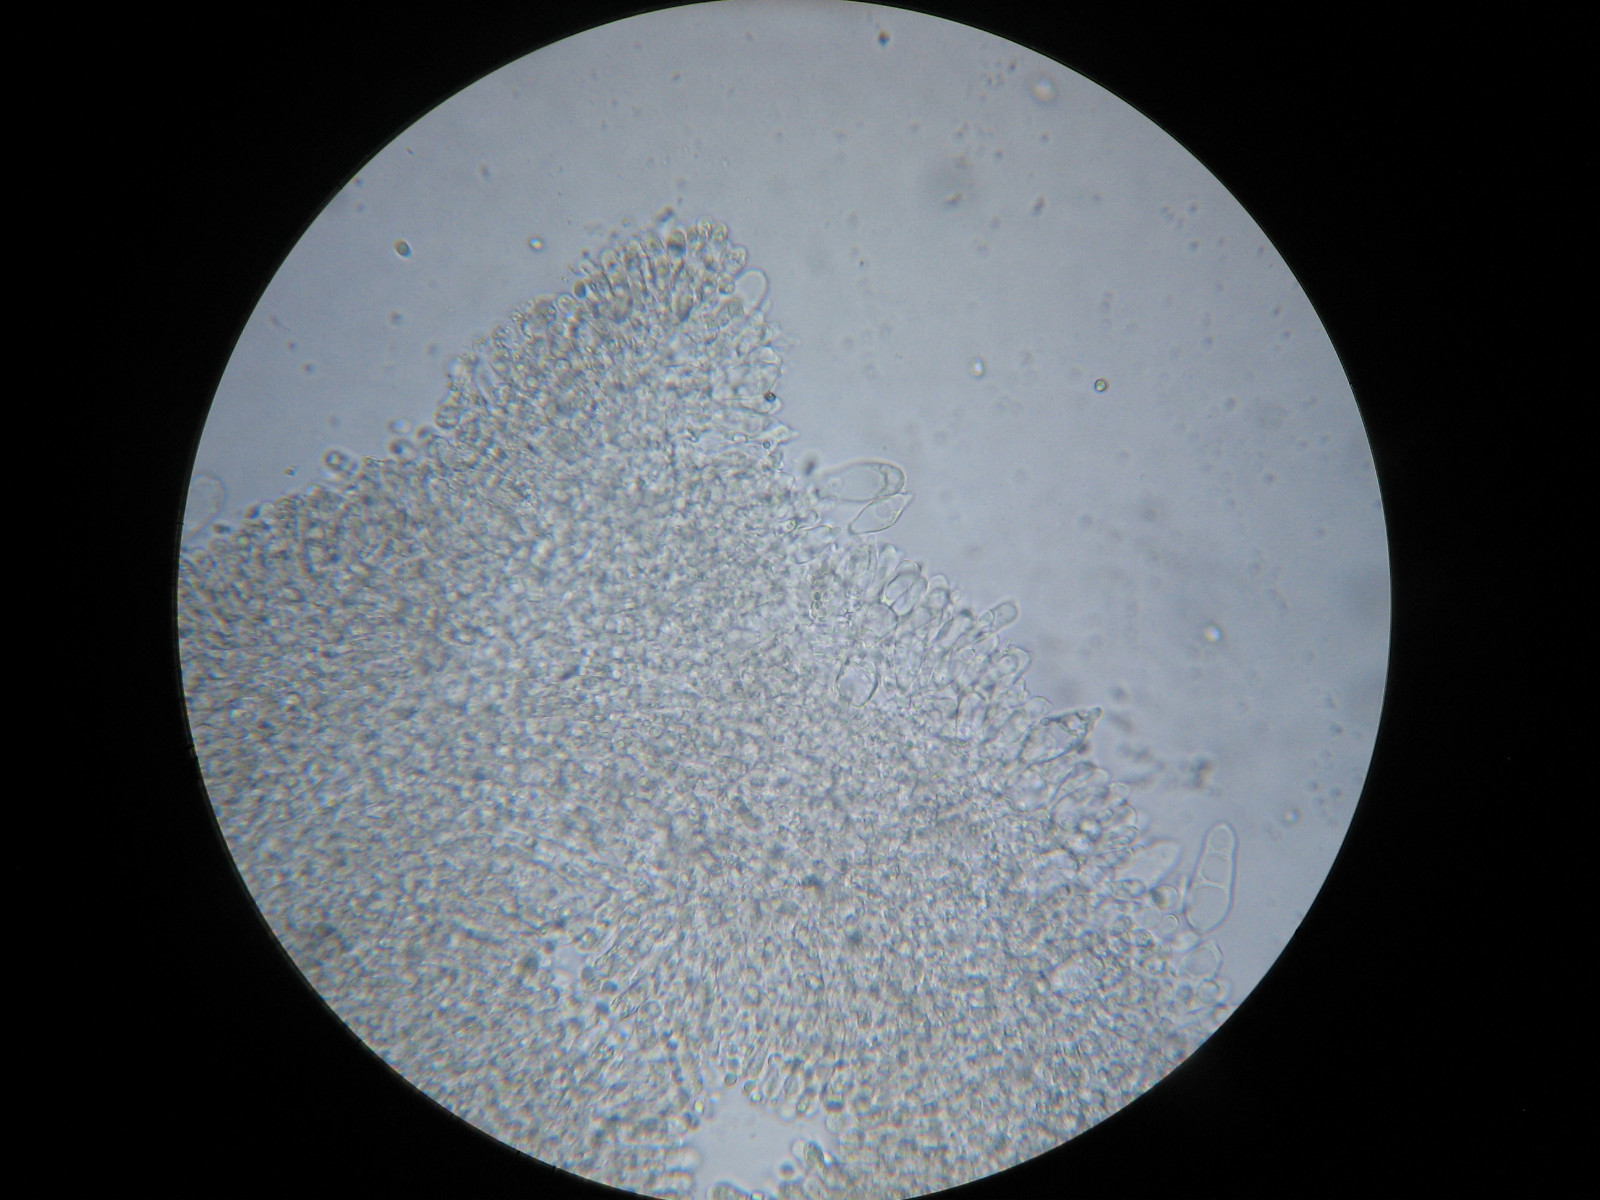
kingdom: Fungi
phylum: Basidiomycota
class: Agaricomycetes
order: Agaricales
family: Mycenaceae
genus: Mycena
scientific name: Mycena leptocephala
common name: klor-huesvamp
